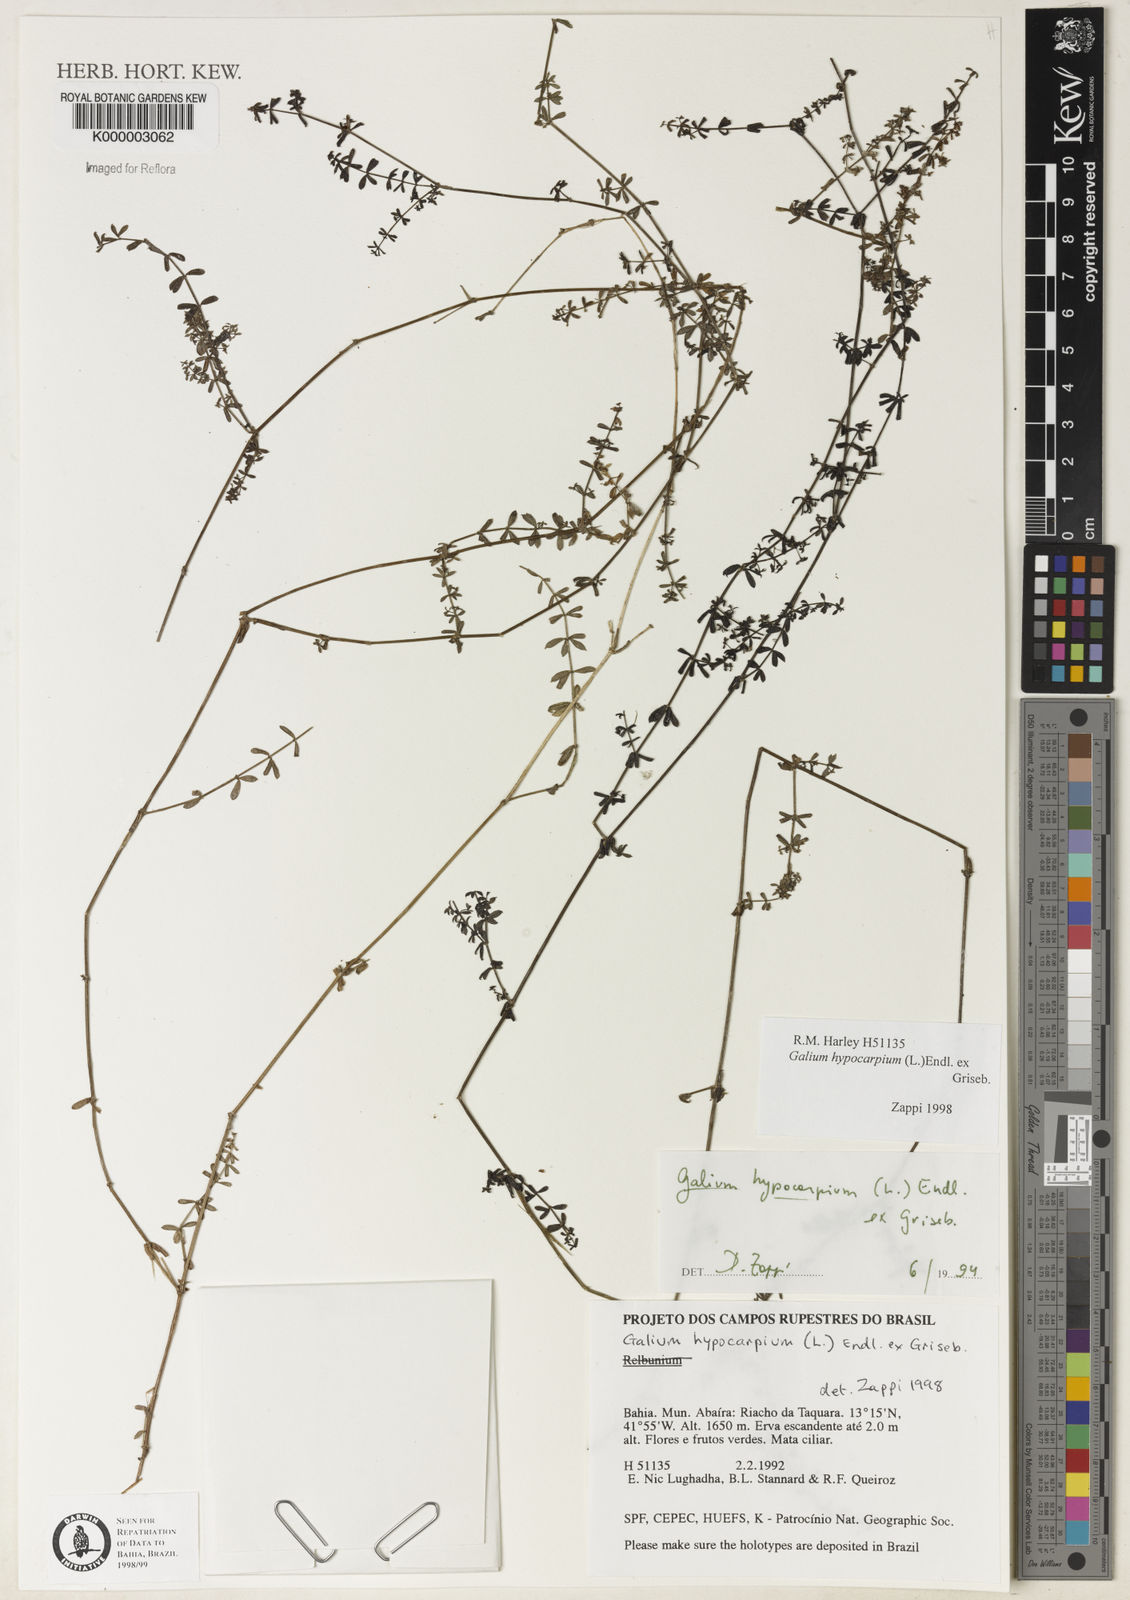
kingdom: Plantae
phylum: Tracheophyta
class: Magnoliopsida
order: Gentianales
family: Rubiaceae
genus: Galium
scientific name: Galium hypocarpium
